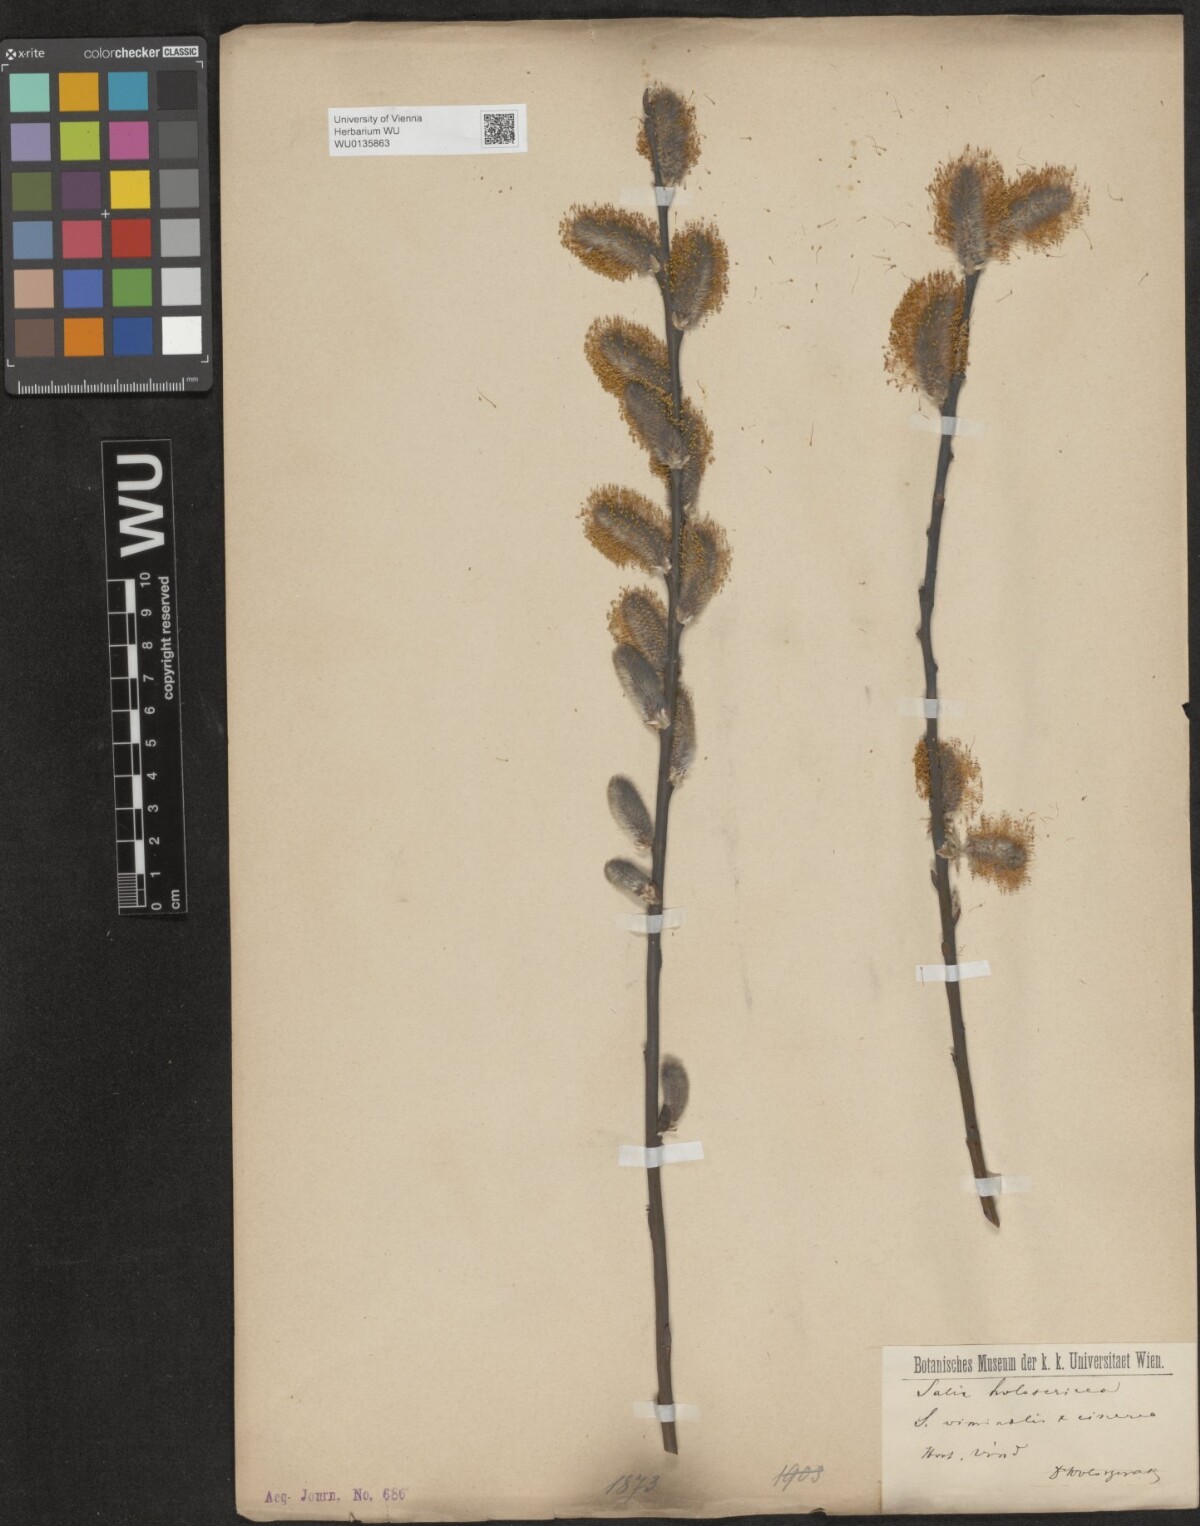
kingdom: Plantae
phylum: Tracheophyta
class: Magnoliopsida
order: Malpighiales
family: Salicaceae
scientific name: Salicaceae
